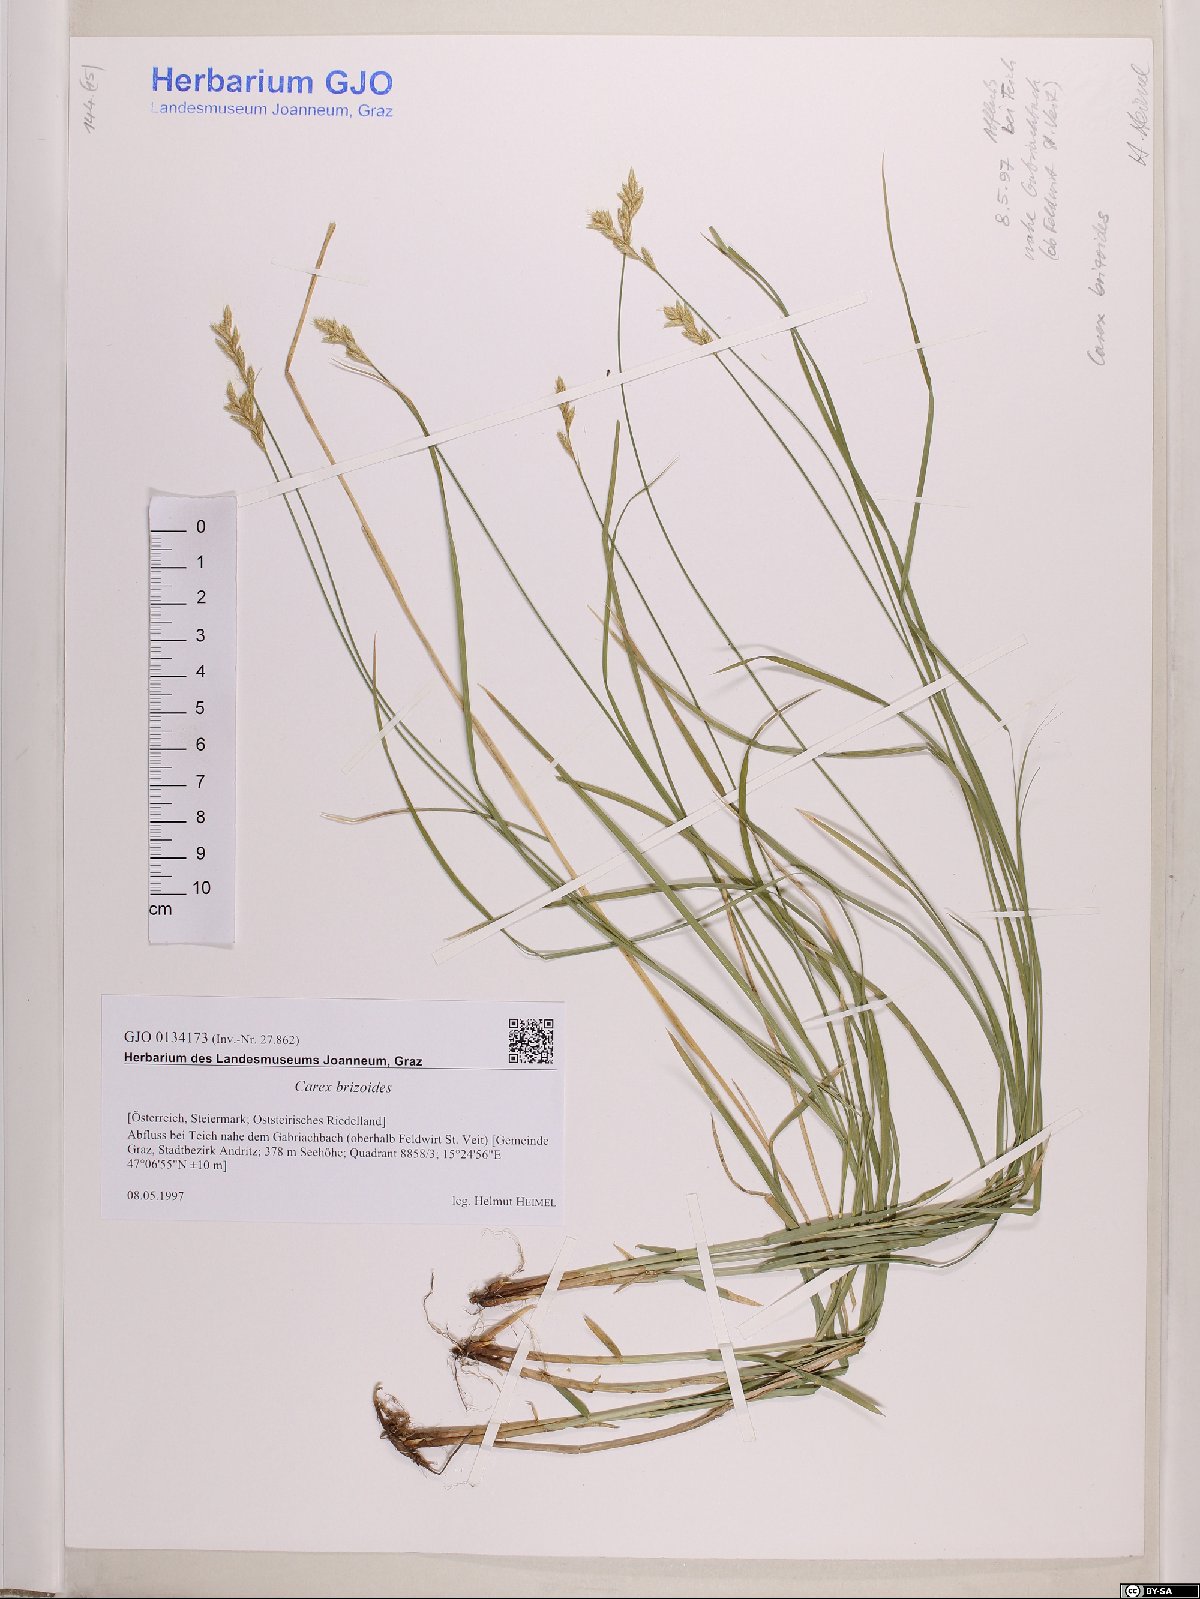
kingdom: Plantae
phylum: Tracheophyta
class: Liliopsida
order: Poales
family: Cyperaceae
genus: Carex
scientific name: Carex brizoides
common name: Quaking-grass sedge
